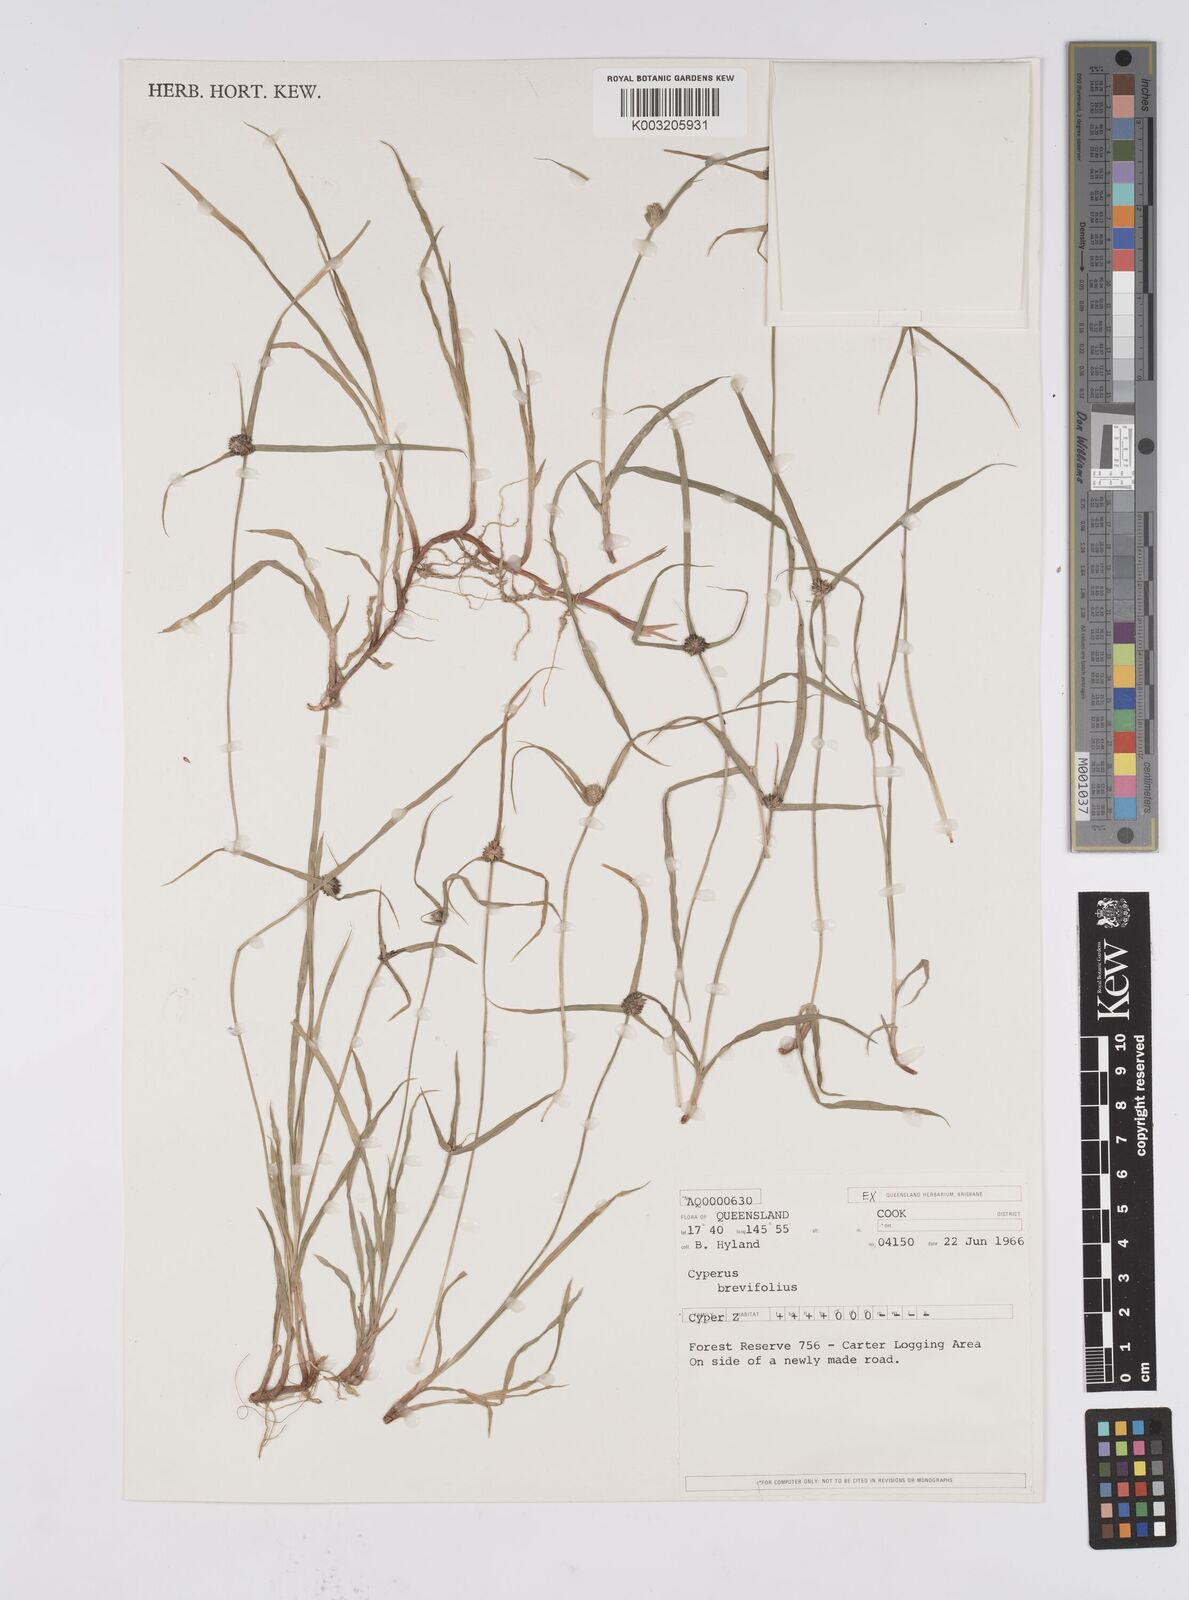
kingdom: Plantae
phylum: Tracheophyta
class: Liliopsida
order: Poales
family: Cyperaceae
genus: Cyperus
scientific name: Cyperus brevifolius
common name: Globe kyllinga
